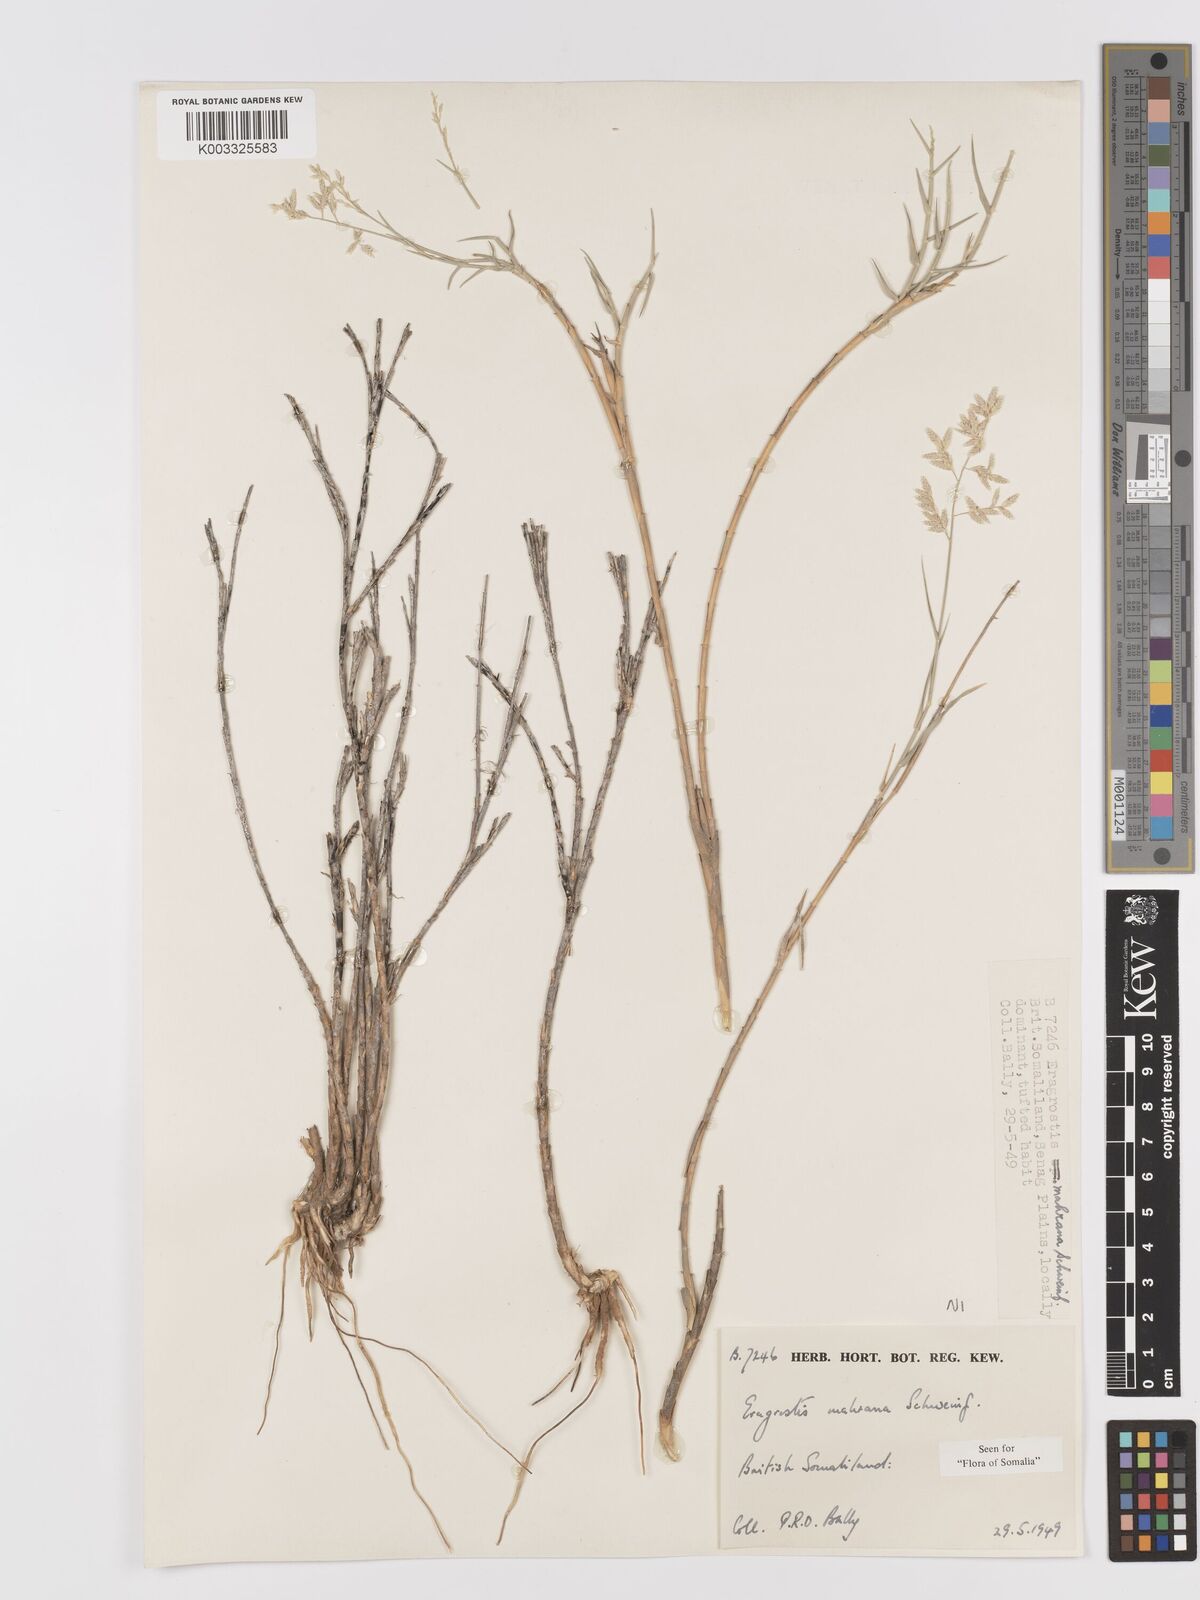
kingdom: Plantae
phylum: Tracheophyta
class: Liliopsida
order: Poales
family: Poaceae
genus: Eragrostis
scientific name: Eragrostis mahrana
